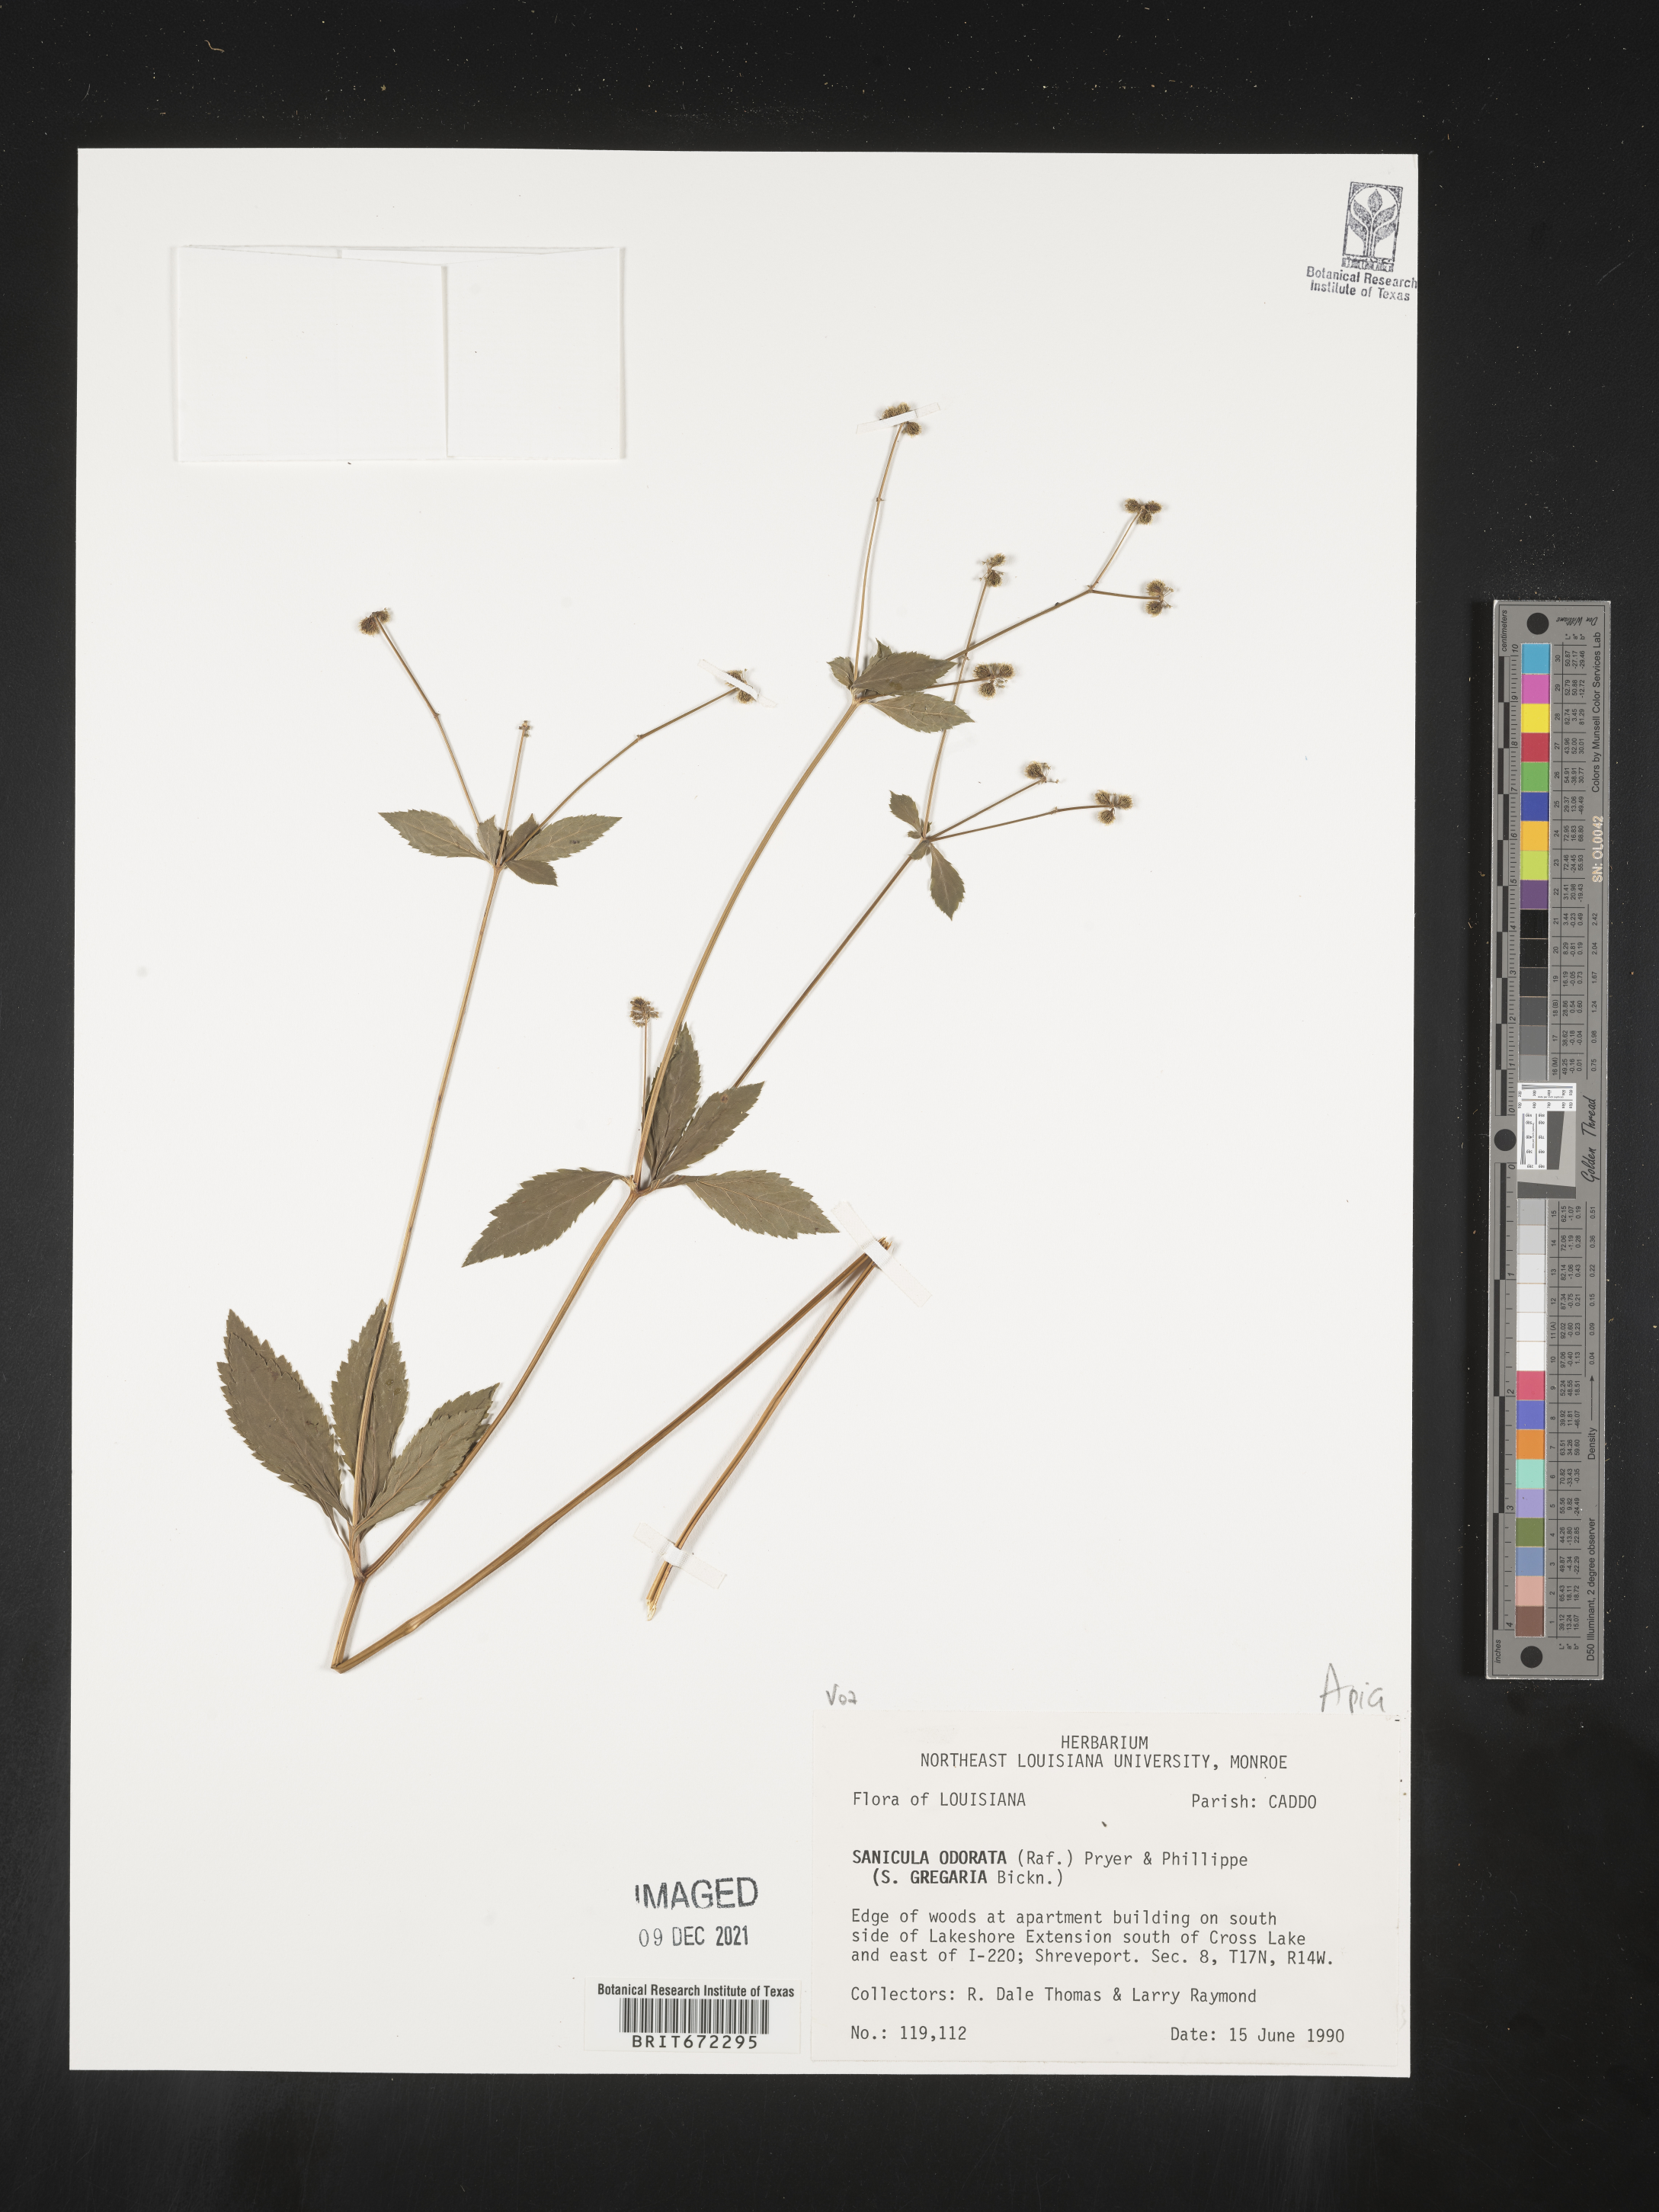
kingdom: Plantae
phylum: Tracheophyta
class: Magnoliopsida
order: Apiales
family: Apiaceae
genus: Sanicula
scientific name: Sanicula
